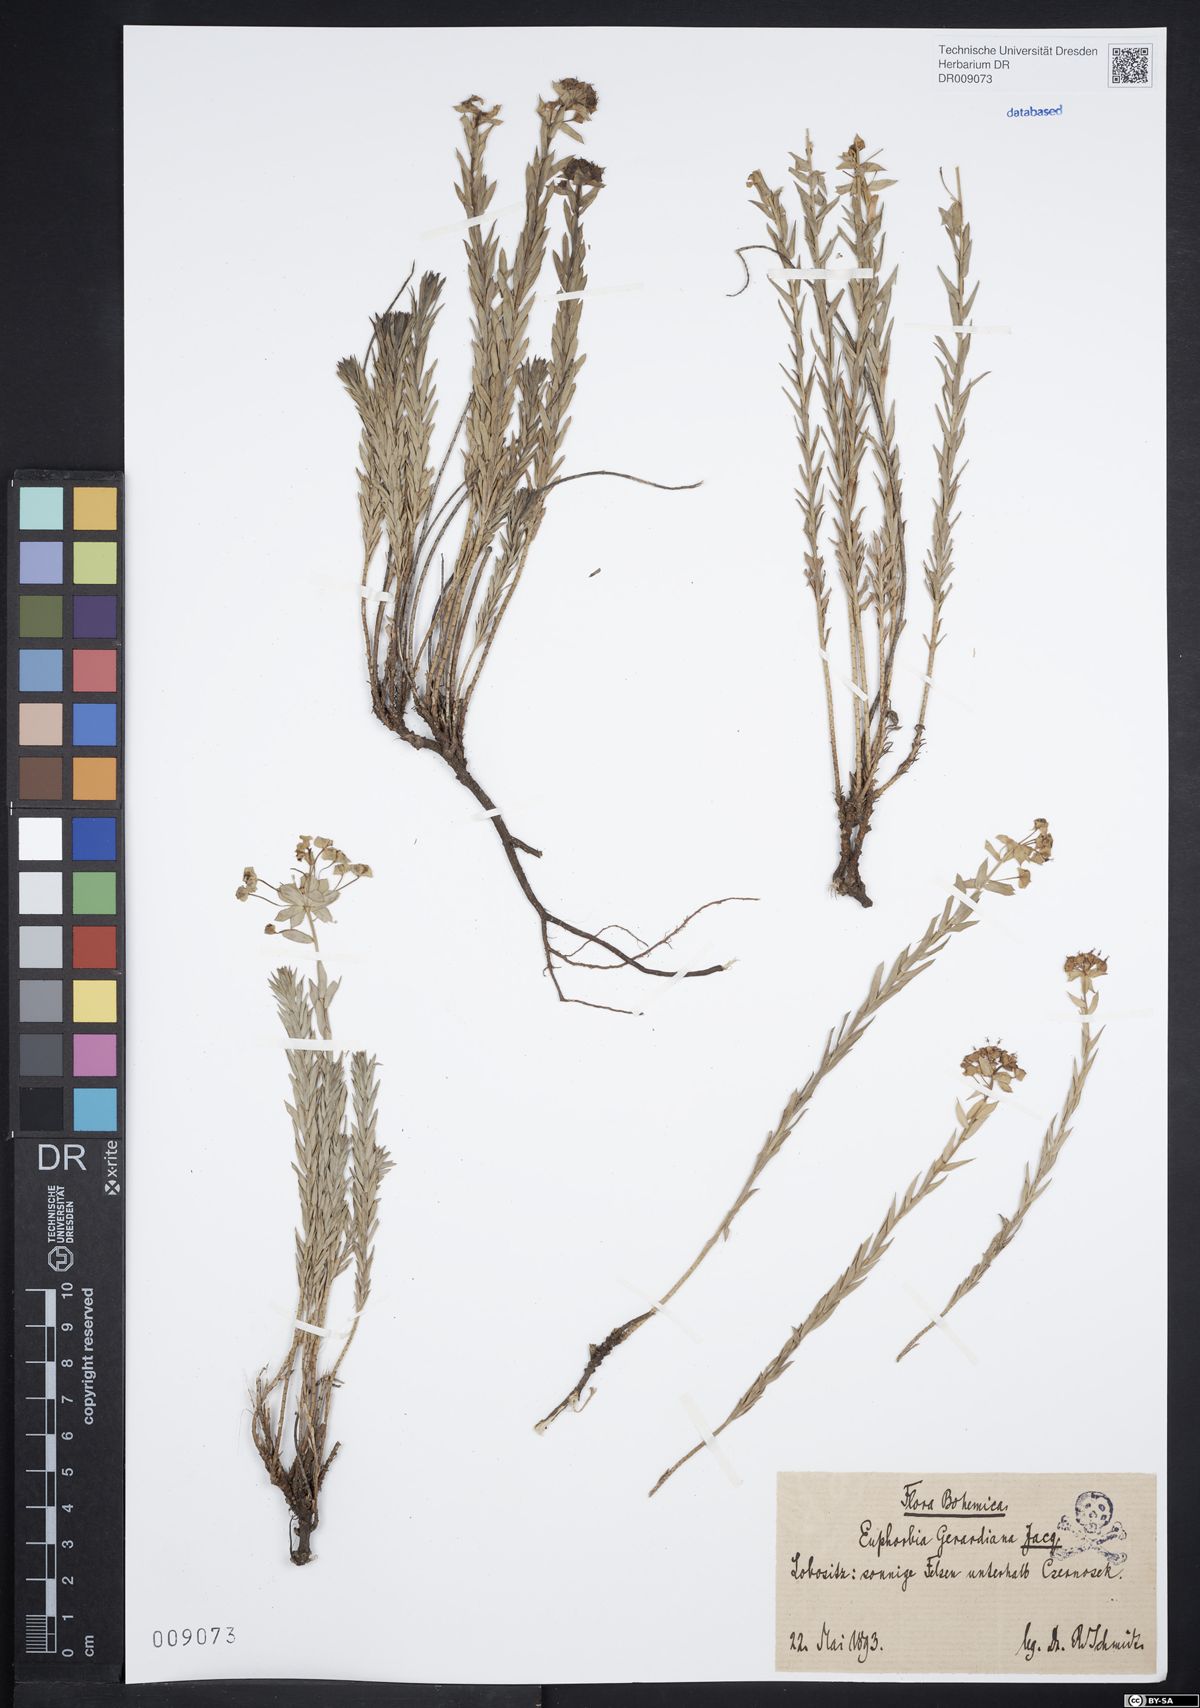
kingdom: Plantae
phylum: Tracheophyta
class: Magnoliopsida
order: Malpighiales
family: Euphorbiaceae
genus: Euphorbia
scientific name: Euphorbia seguieriana
